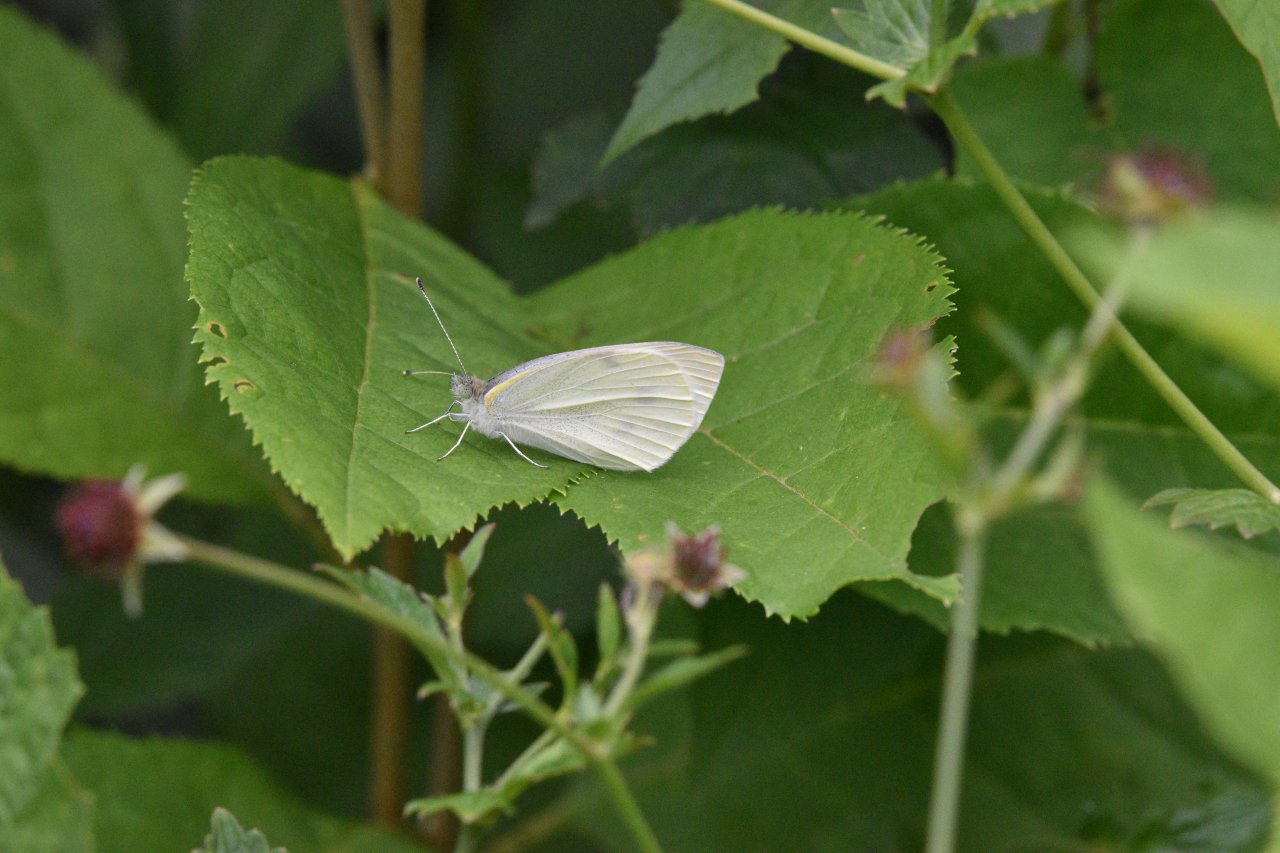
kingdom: Animalia
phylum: Arthropoda
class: Insecta
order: Lepidoptera
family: Pieridae
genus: Pieris
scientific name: Pieris rapae
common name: Cabbage White
